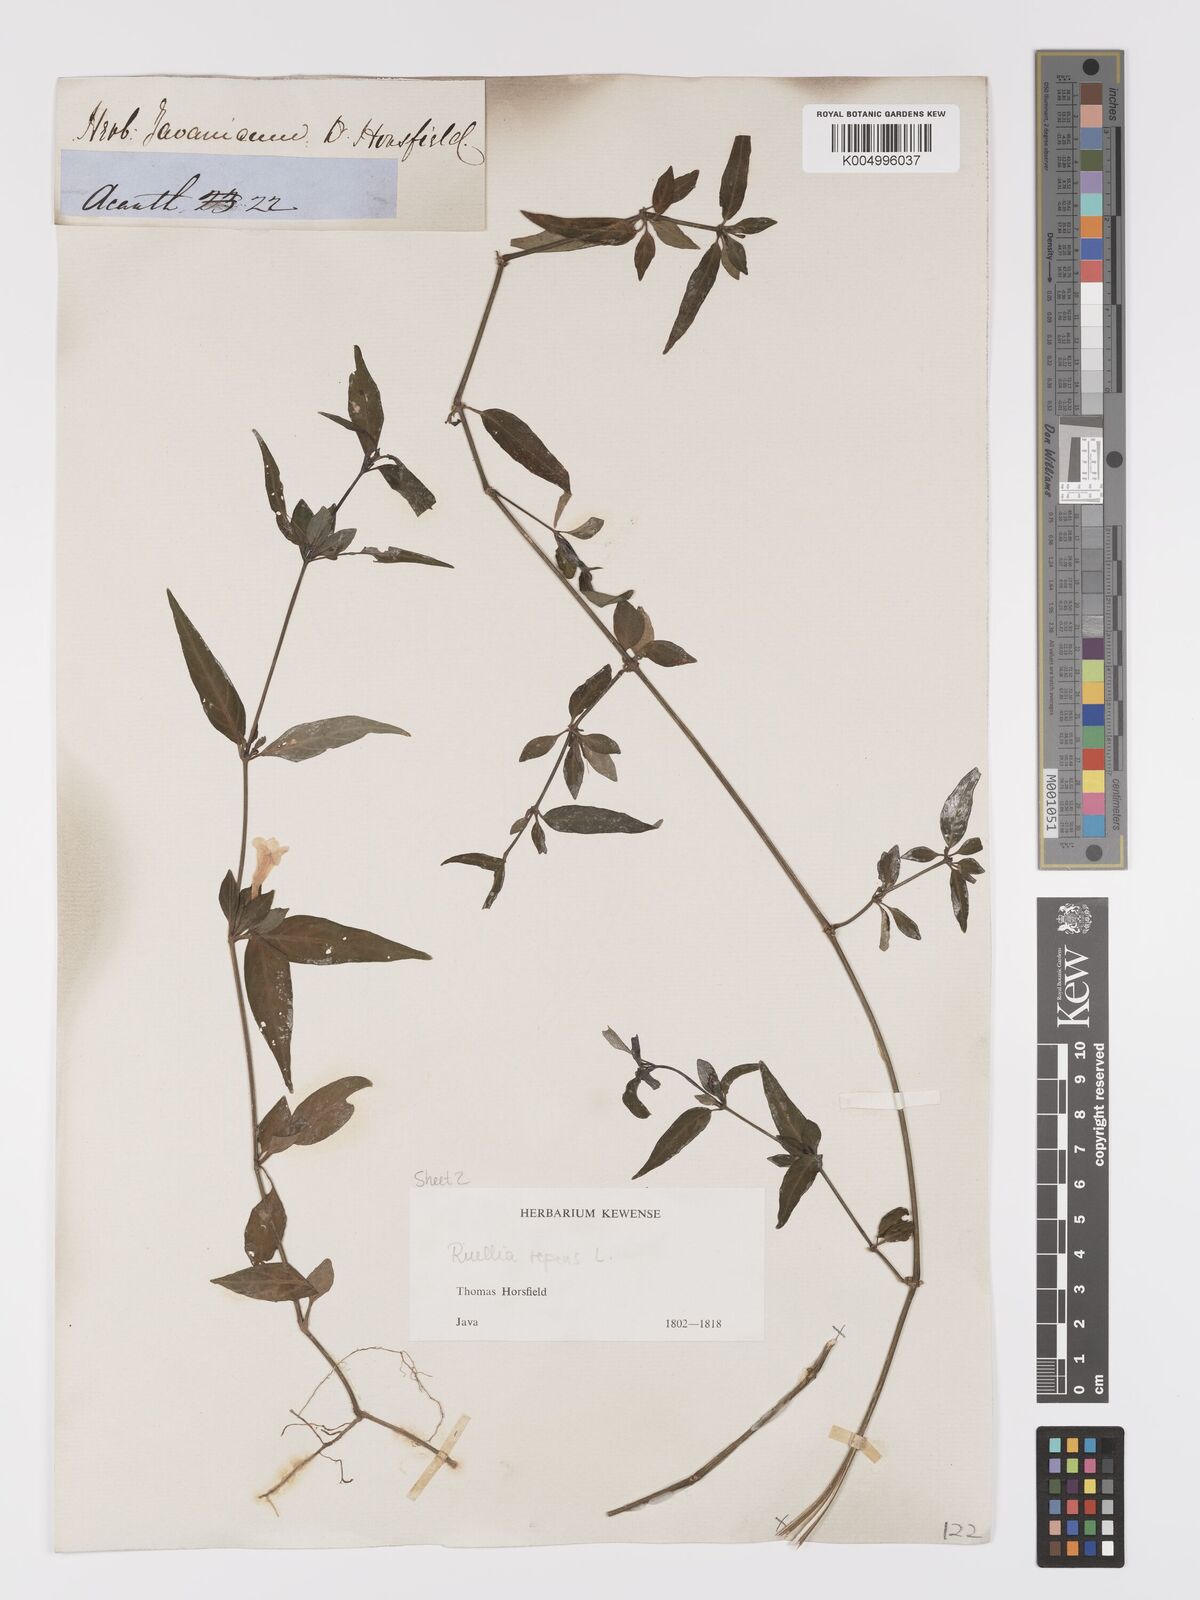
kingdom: Plantae
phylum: Tracheophyta
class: Magnoliopsida
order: Lamiales
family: Acanthaceae
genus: Ruellia
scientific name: Ruellia
